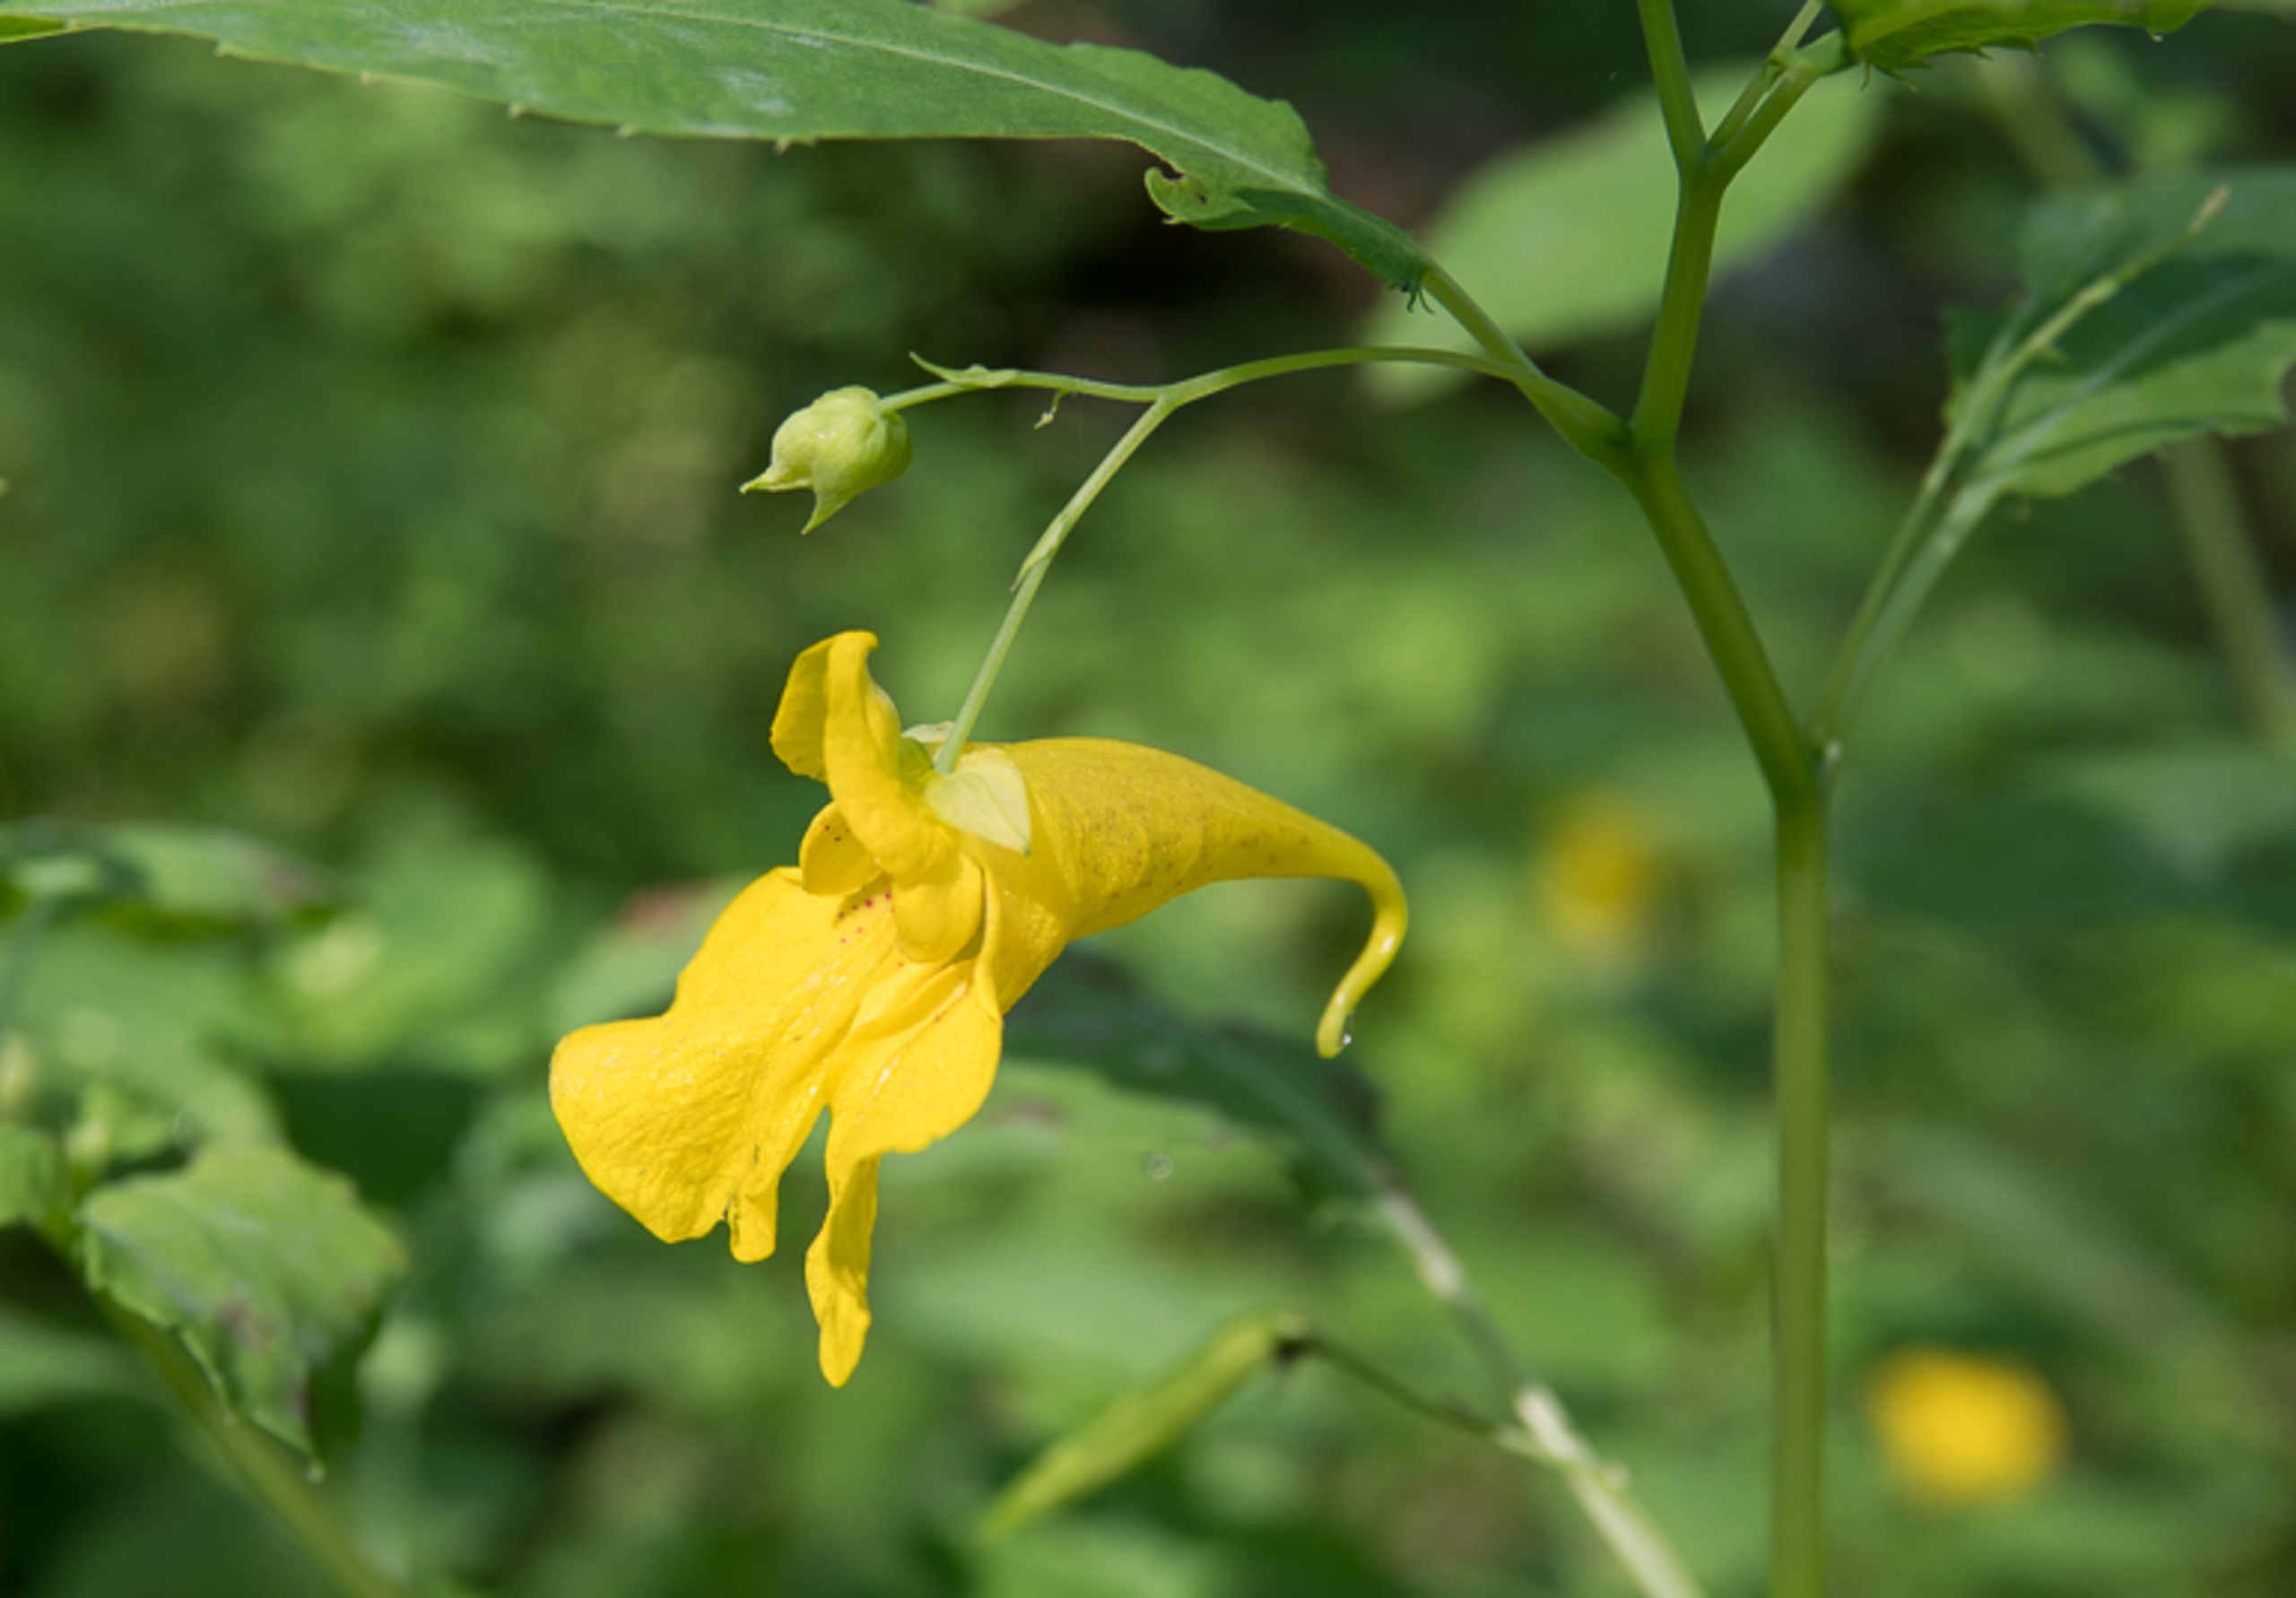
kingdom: Plantae
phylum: Tracheophyta
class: Magnoliopsida
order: Ericales
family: Balsaminaceae
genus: Impatiens
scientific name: Impatiens noli-tangere
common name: Spring-balsamin
